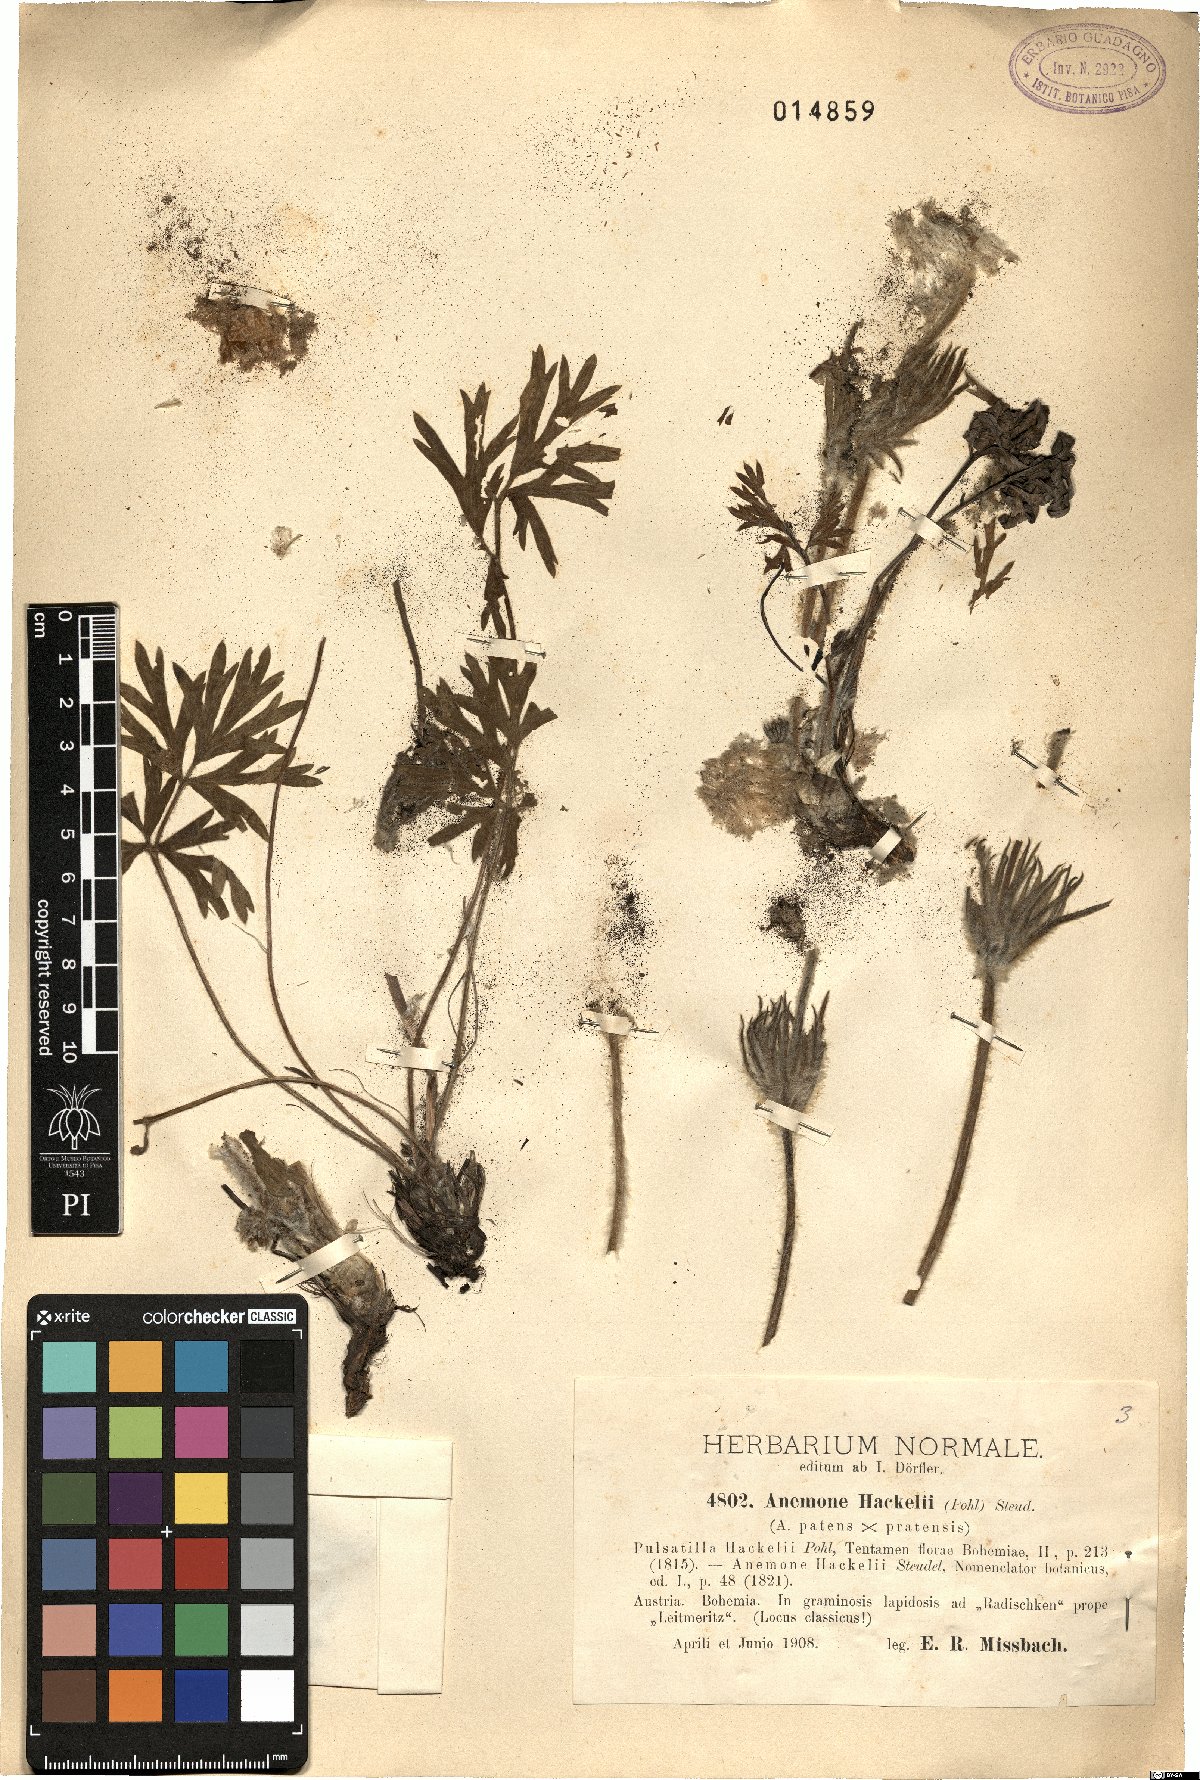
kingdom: Plantae
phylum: Tracheophyta
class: Magnoliopsida
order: Ranunculales
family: Ranunculaceae
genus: Pulsatilla
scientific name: Pulsatilla
